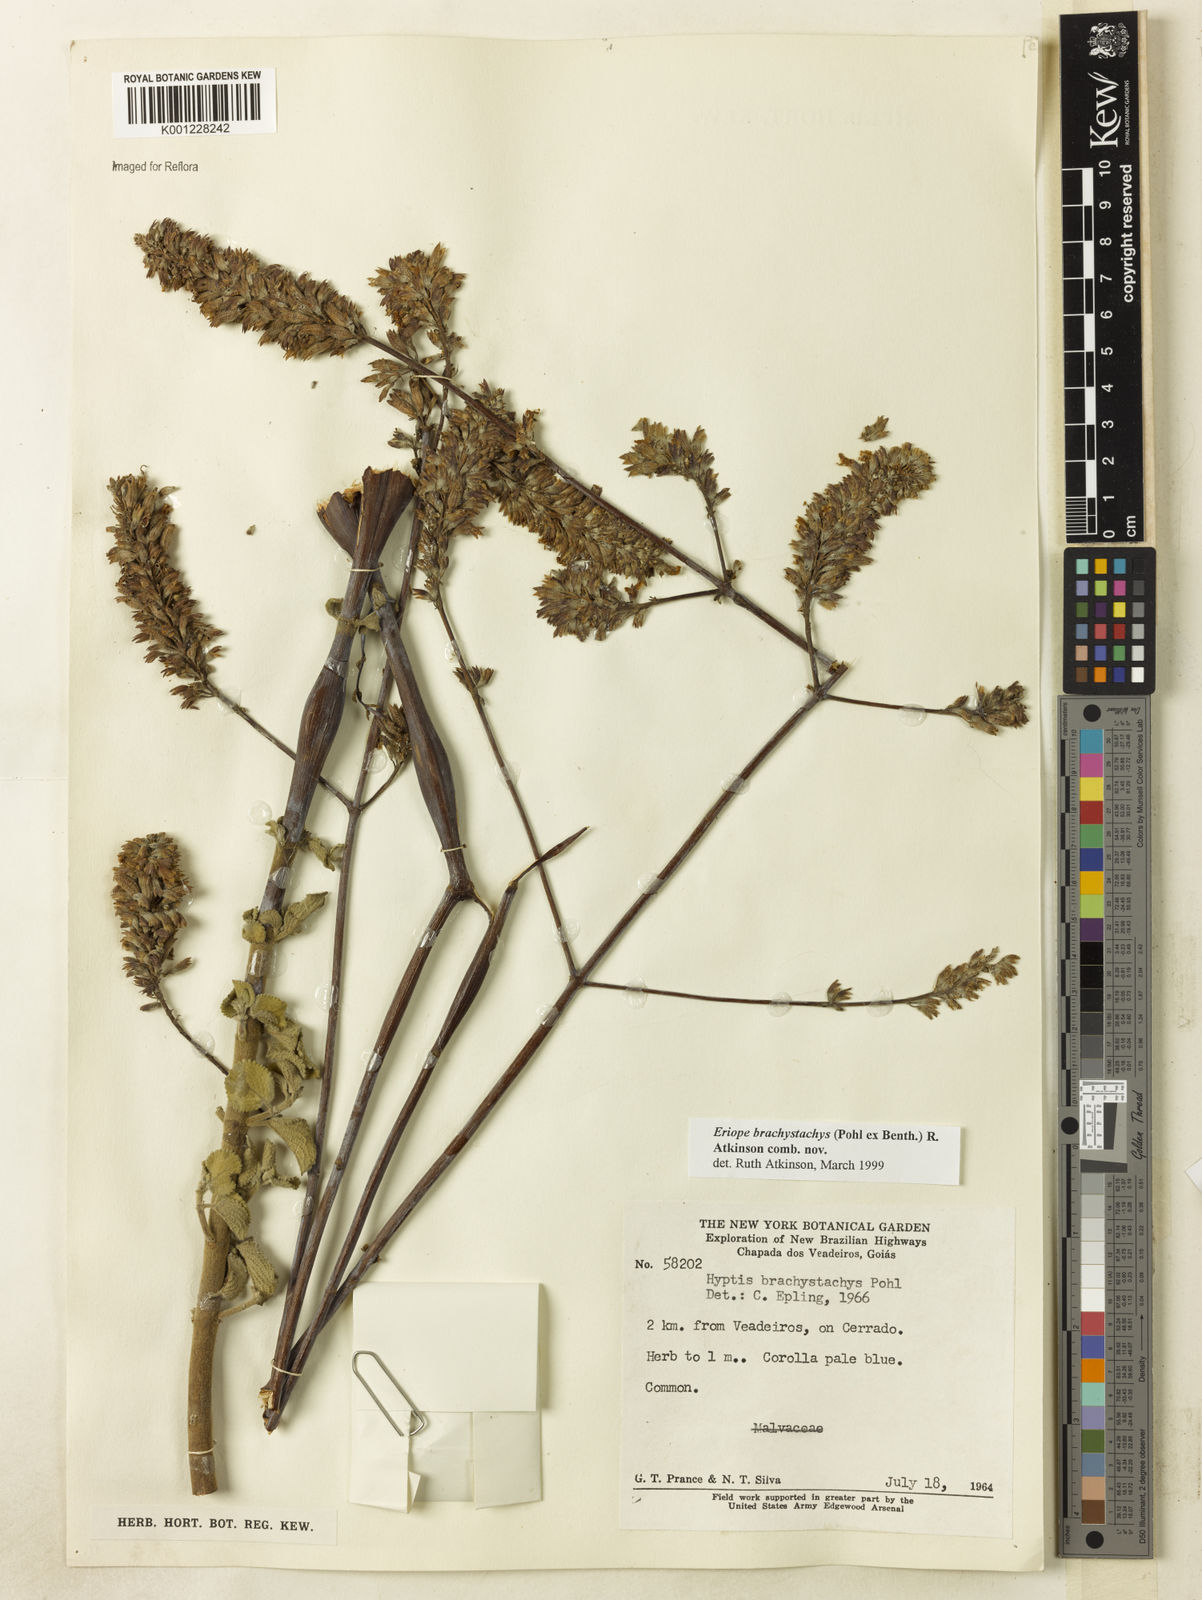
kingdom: Plantae
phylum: Tracheophyta
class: Magnoliopsida
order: Lamiales
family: Lamiaceae
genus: Hypenia
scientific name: Hypenia brachystachys
